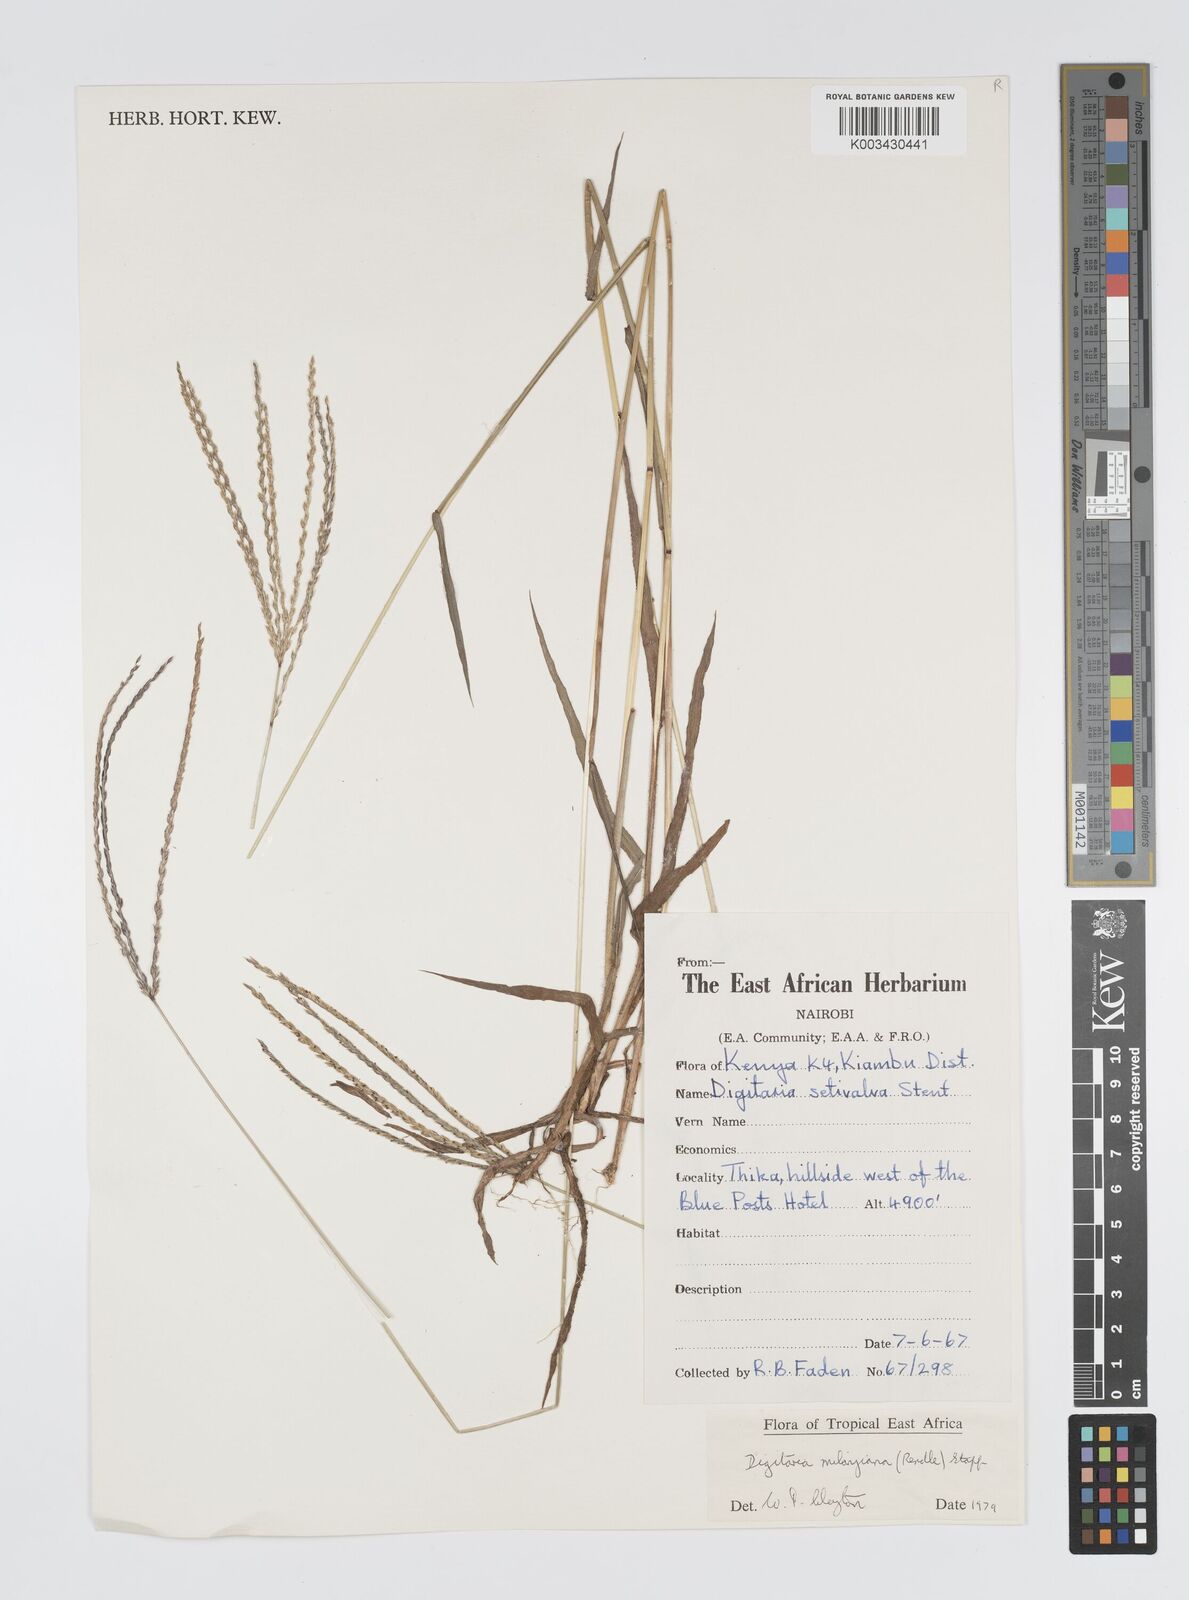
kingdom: Plantae
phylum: Tracheophyta
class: Liliopsida
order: Poales
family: Poaceae
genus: Digitaria
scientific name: Digitaria milanjiana
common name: Madagascar crabgrass
